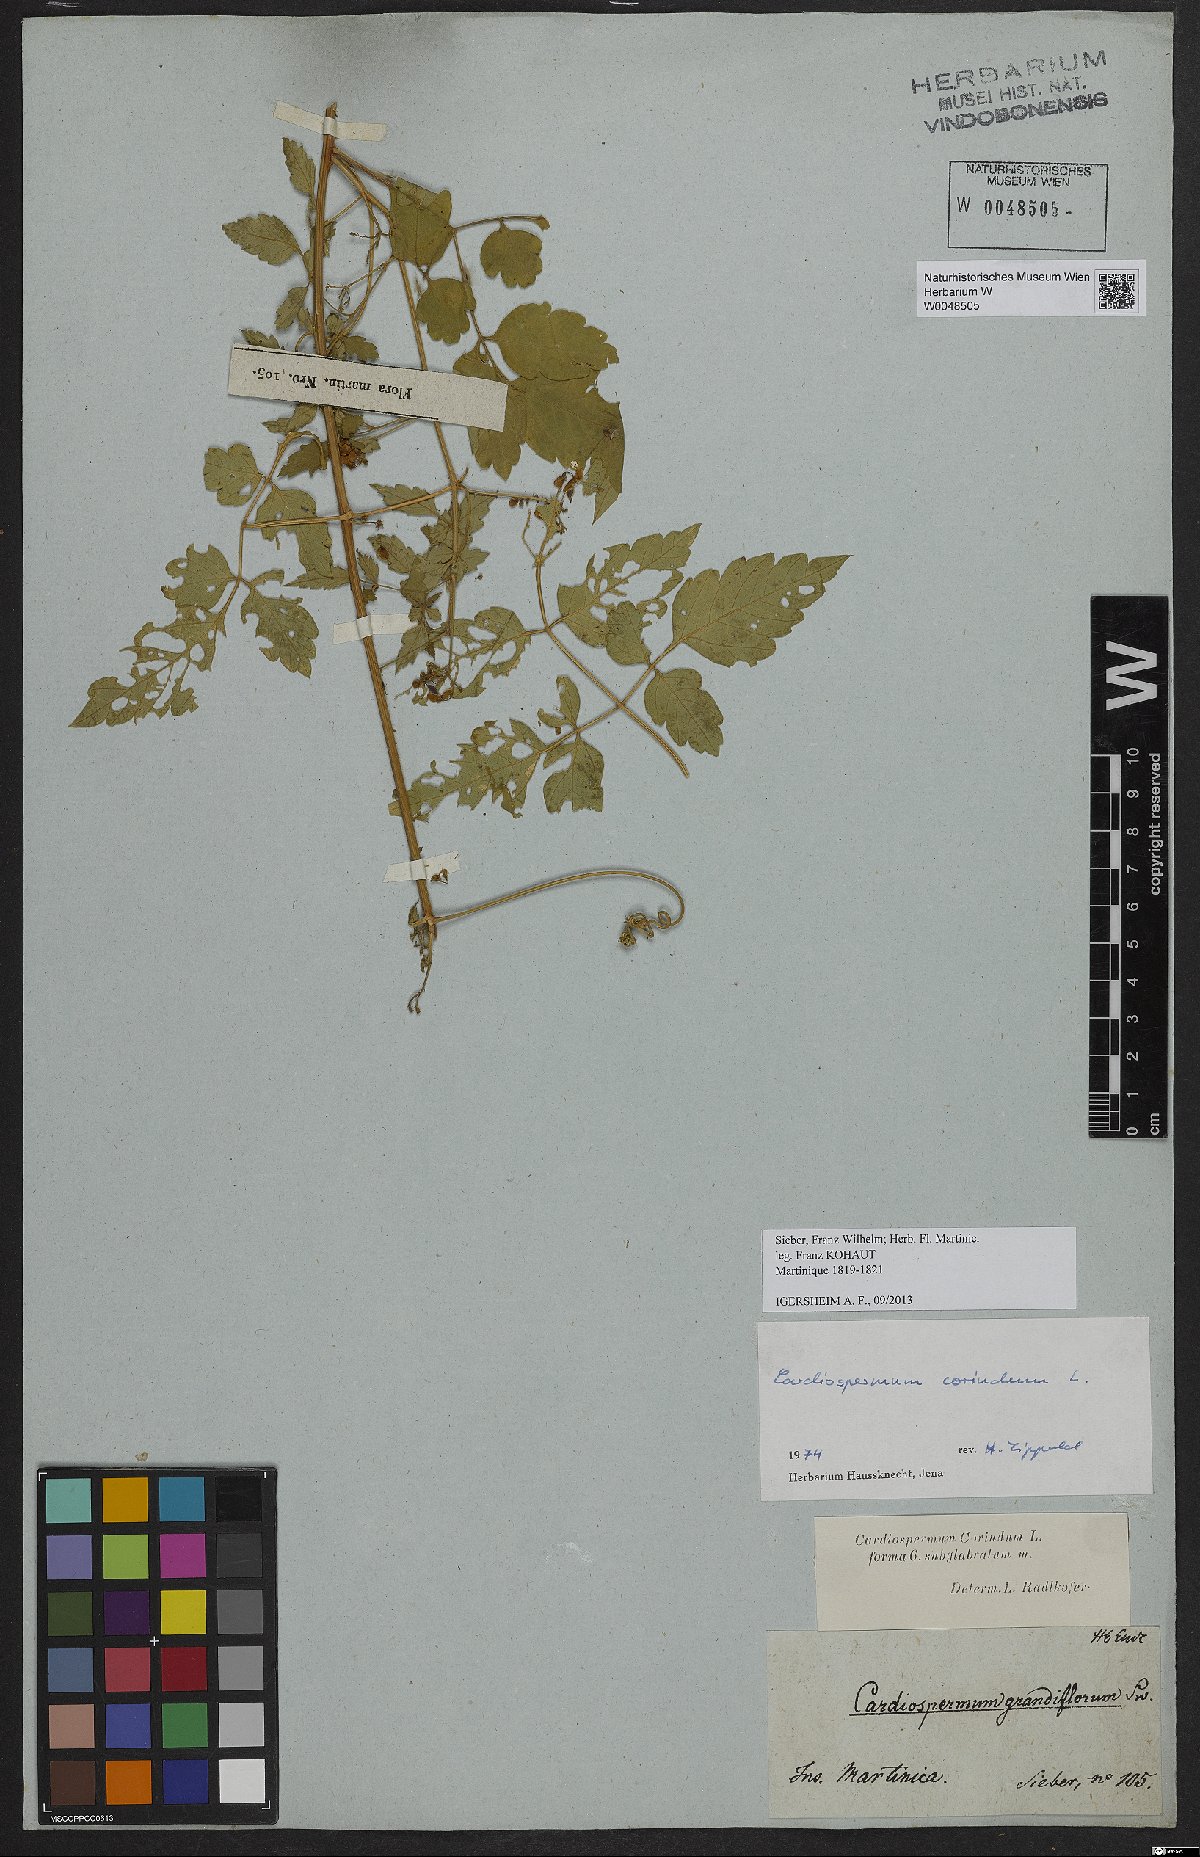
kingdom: Plantae
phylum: Tracheophyta
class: Magnoliopsida
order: Sapindales
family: Sapindaceae
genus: Cardiospermum
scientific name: Cardiospermum corindum
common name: Faux persil
